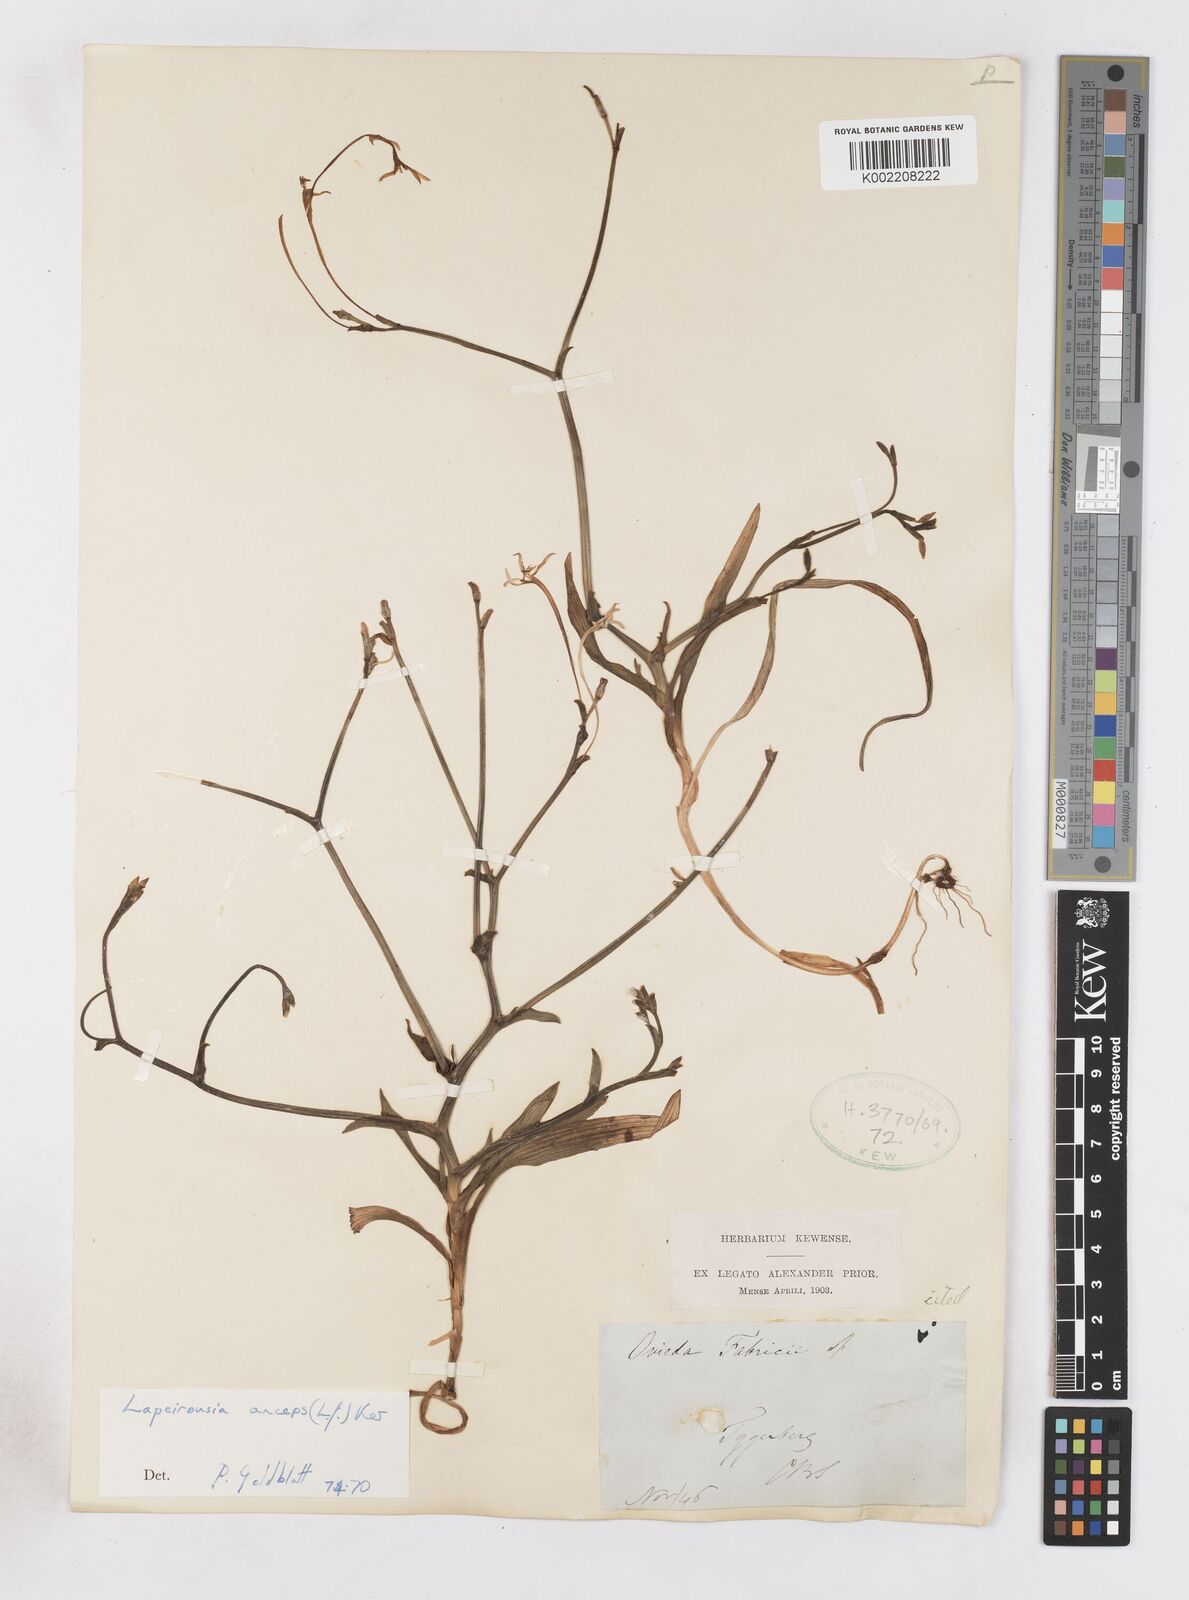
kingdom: Plantae
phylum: Tracheophyta
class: Liliopsida
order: Asparagales
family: Iridaceae
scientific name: Iridaceae
